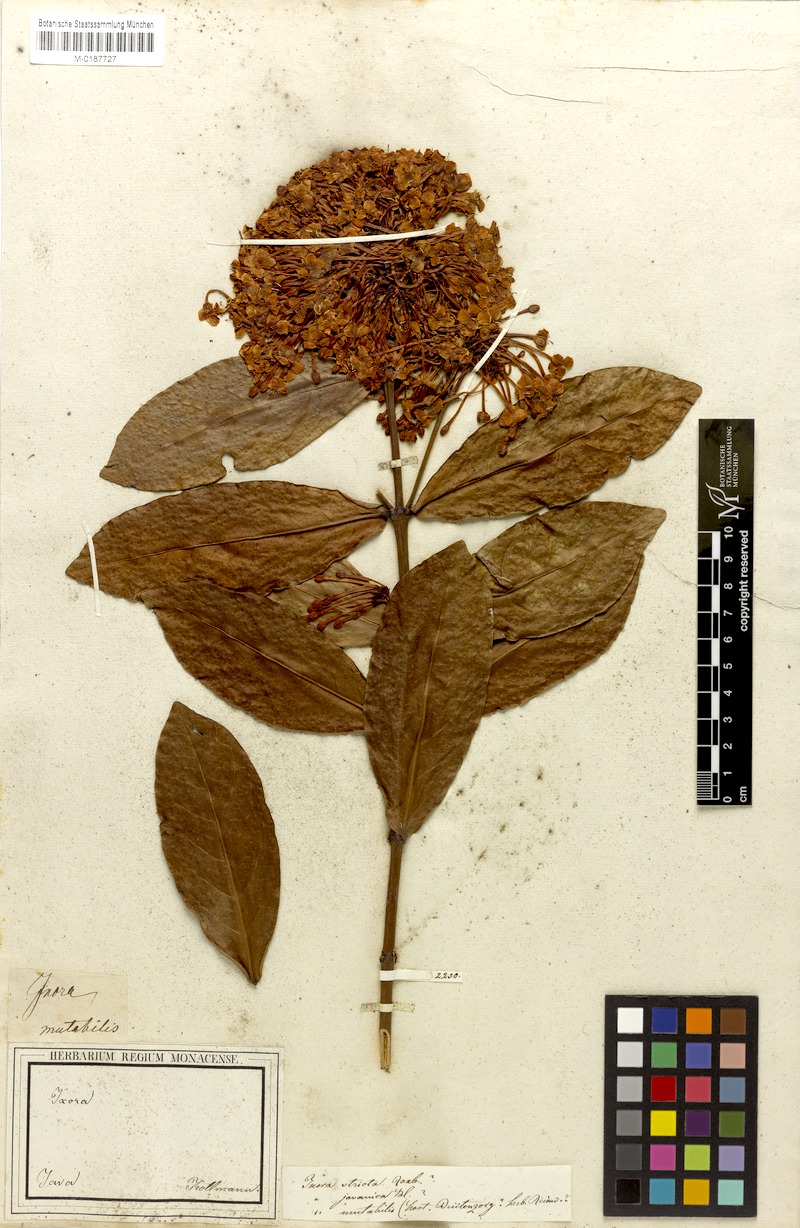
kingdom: Plantae
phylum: Tracheophyta
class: Magnoliopsida
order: Gentianales
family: Rubiaceae
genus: Ixora
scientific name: Ixora javanica
